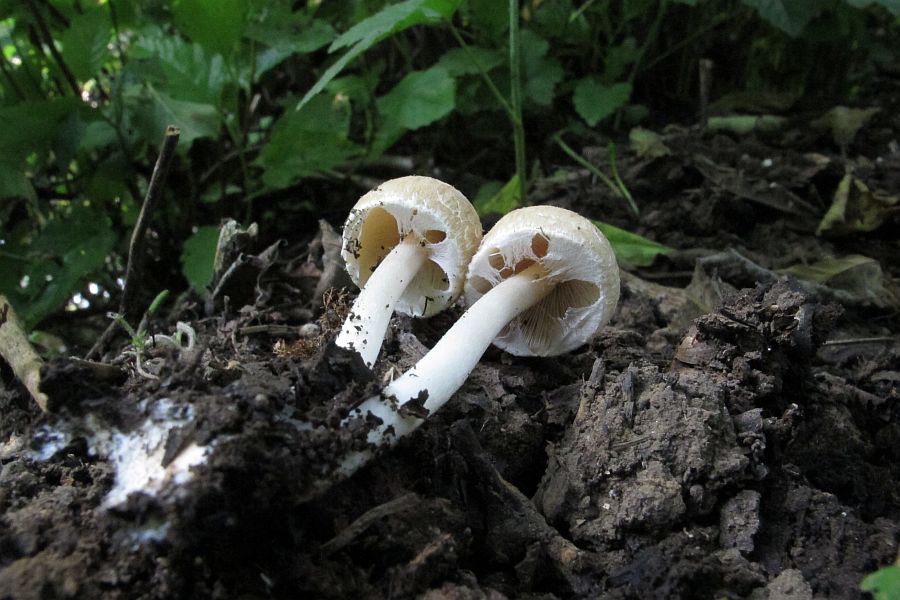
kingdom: Fungi
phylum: Basidiomycota
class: Agaricomycetes
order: Agaricales
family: Psathyrellaceae
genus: Candolleomyces
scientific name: Candolleomyces candolleanus
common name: Candolles mørkhat
